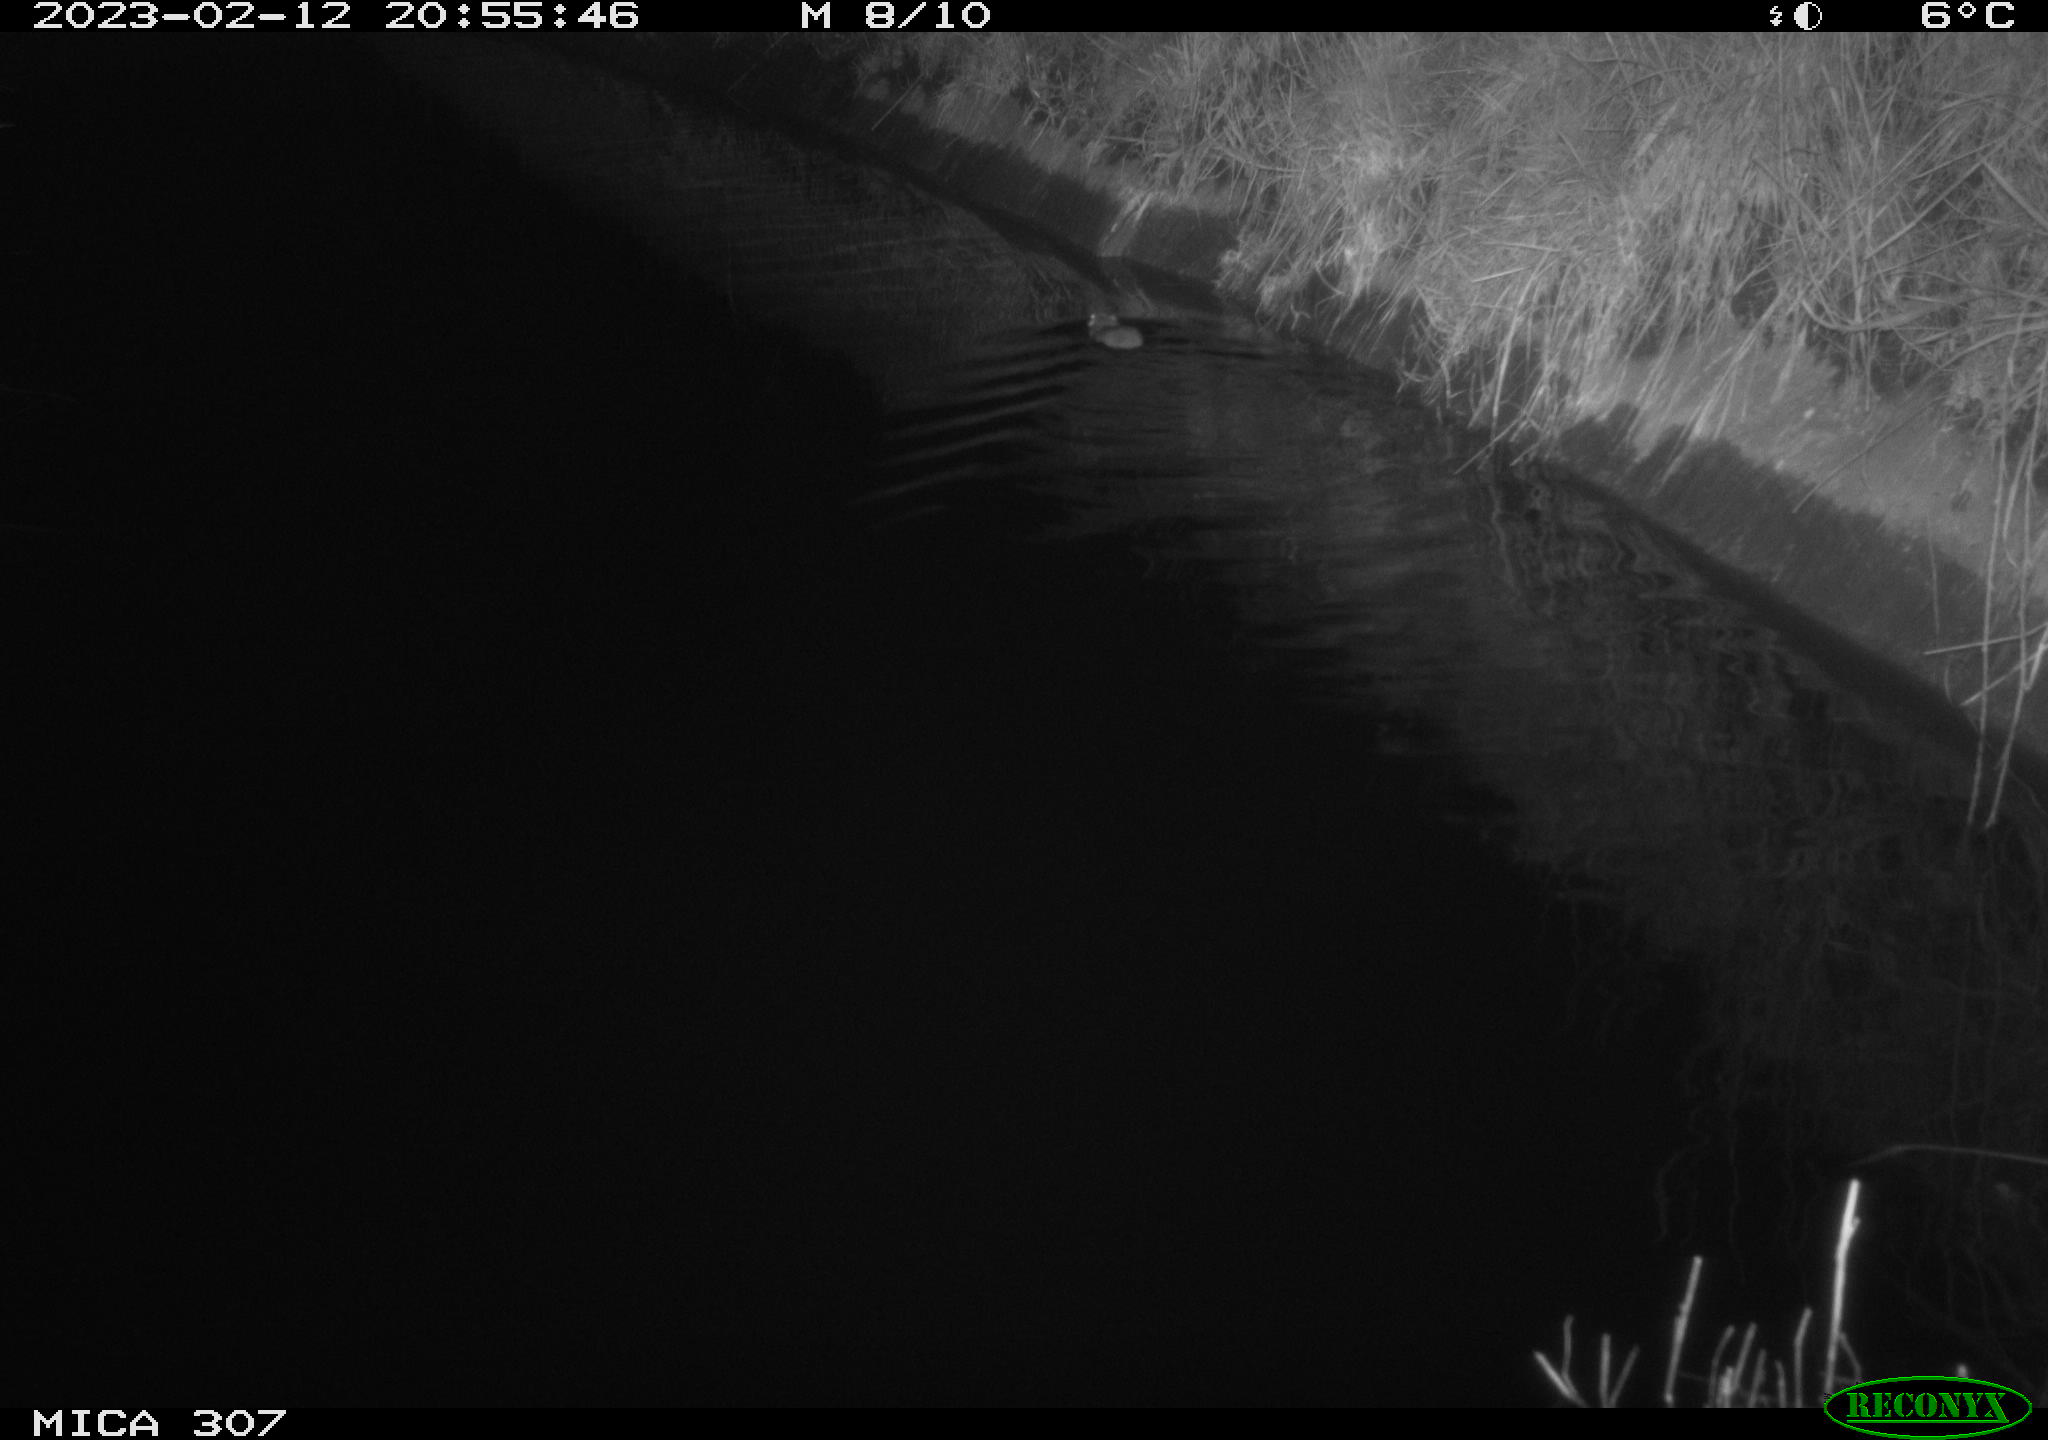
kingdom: Animalia
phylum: Chordata
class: Mammalia
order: Rodentia
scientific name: Rodentia
